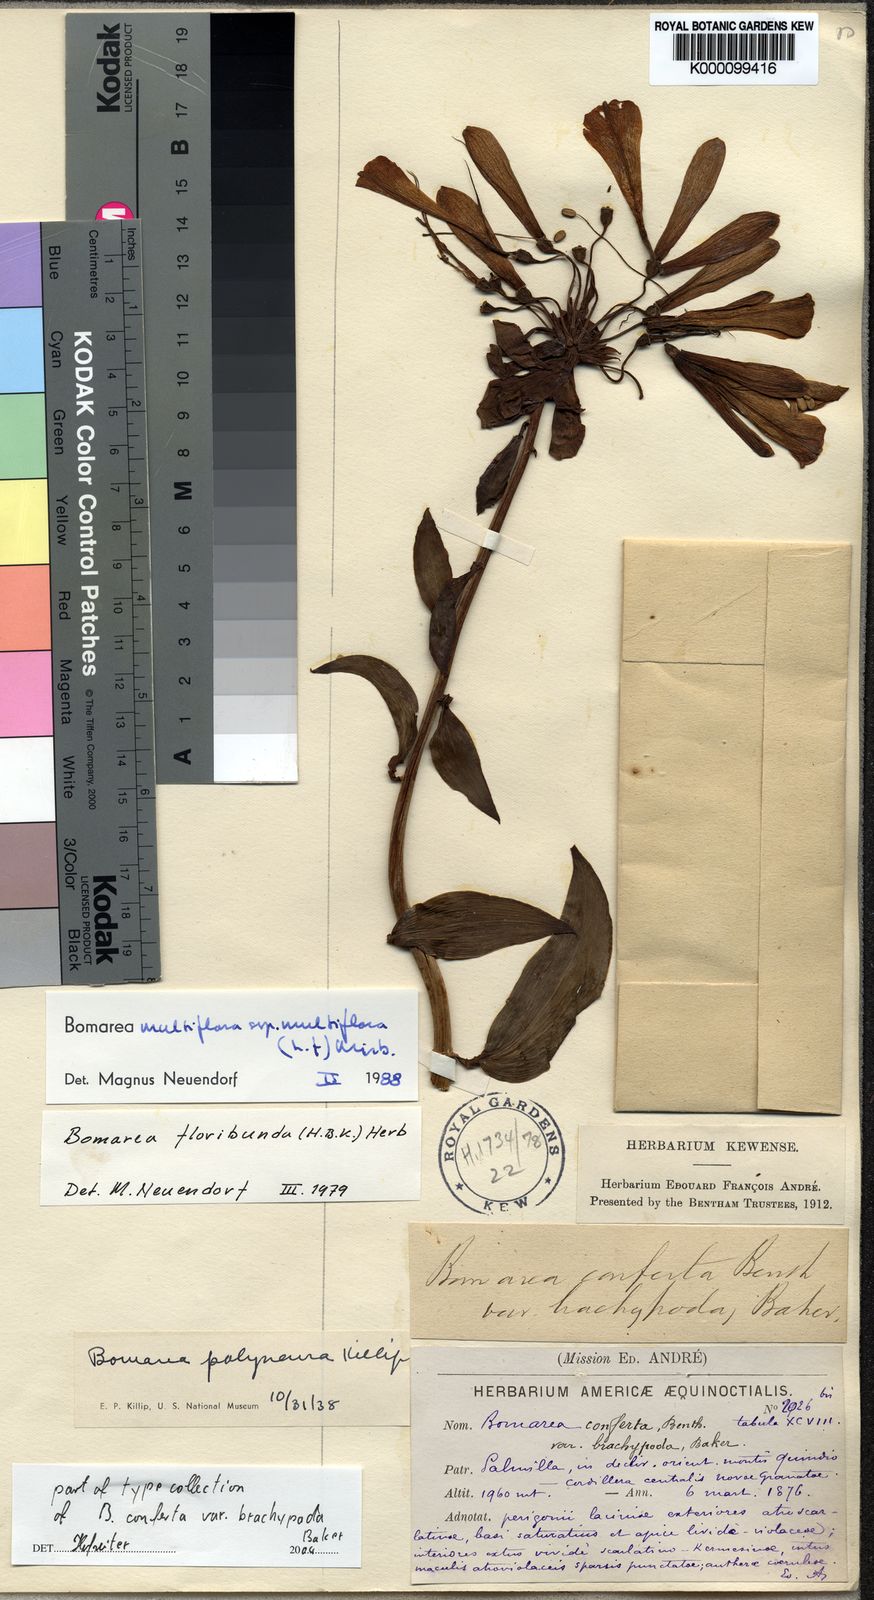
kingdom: Plantae
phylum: Tracheophyta
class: Liliopsida
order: Liliales
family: Alstroemeriaceae
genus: Bomarea
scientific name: Bomarea multiflora
